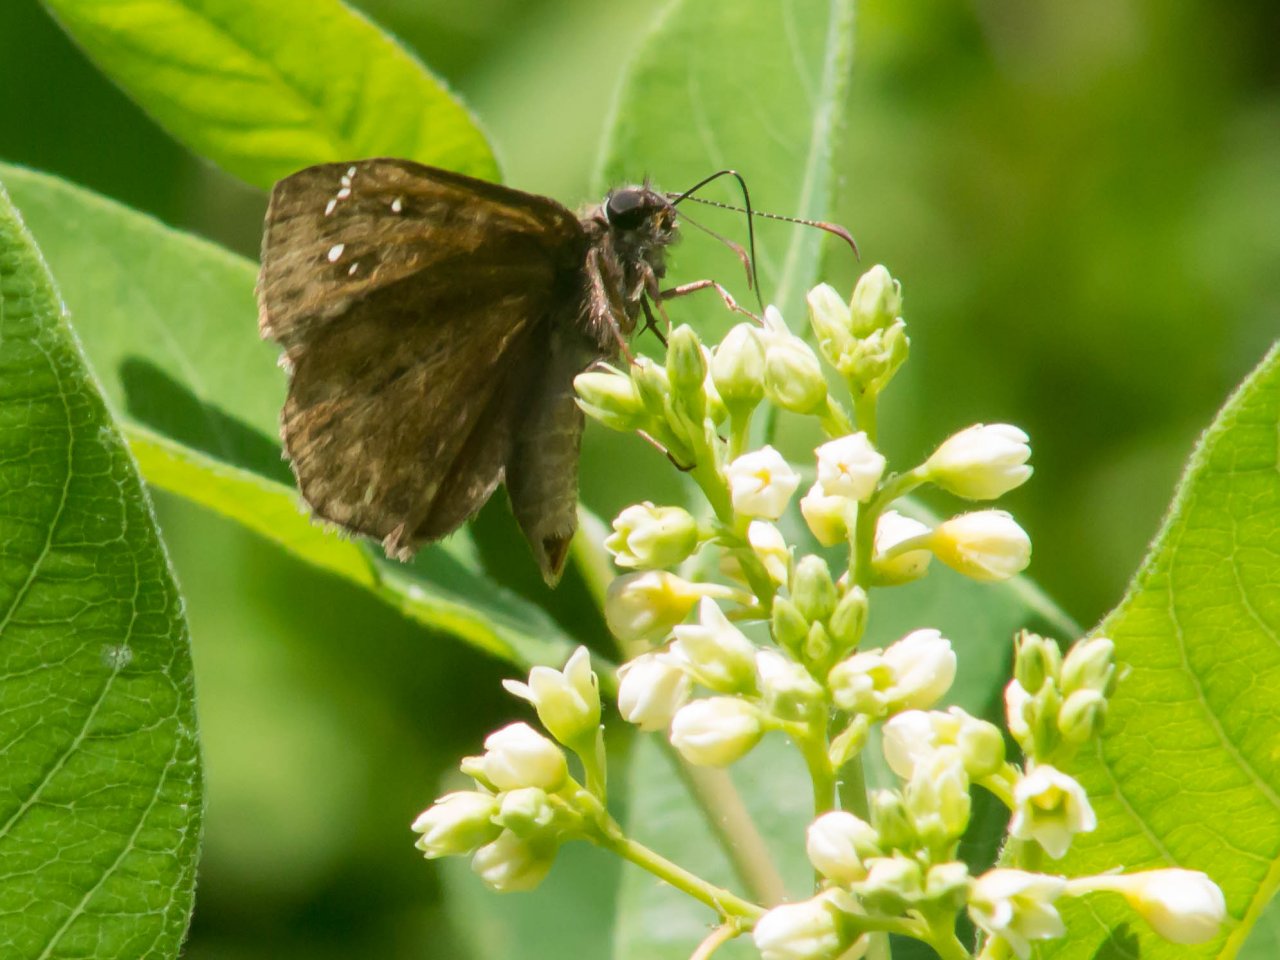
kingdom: Animalia
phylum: Arthropoda
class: Insecta
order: Lepidoptera
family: Hesperiidae
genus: Gesta
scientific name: Gesta
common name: Horace's Duskywing
